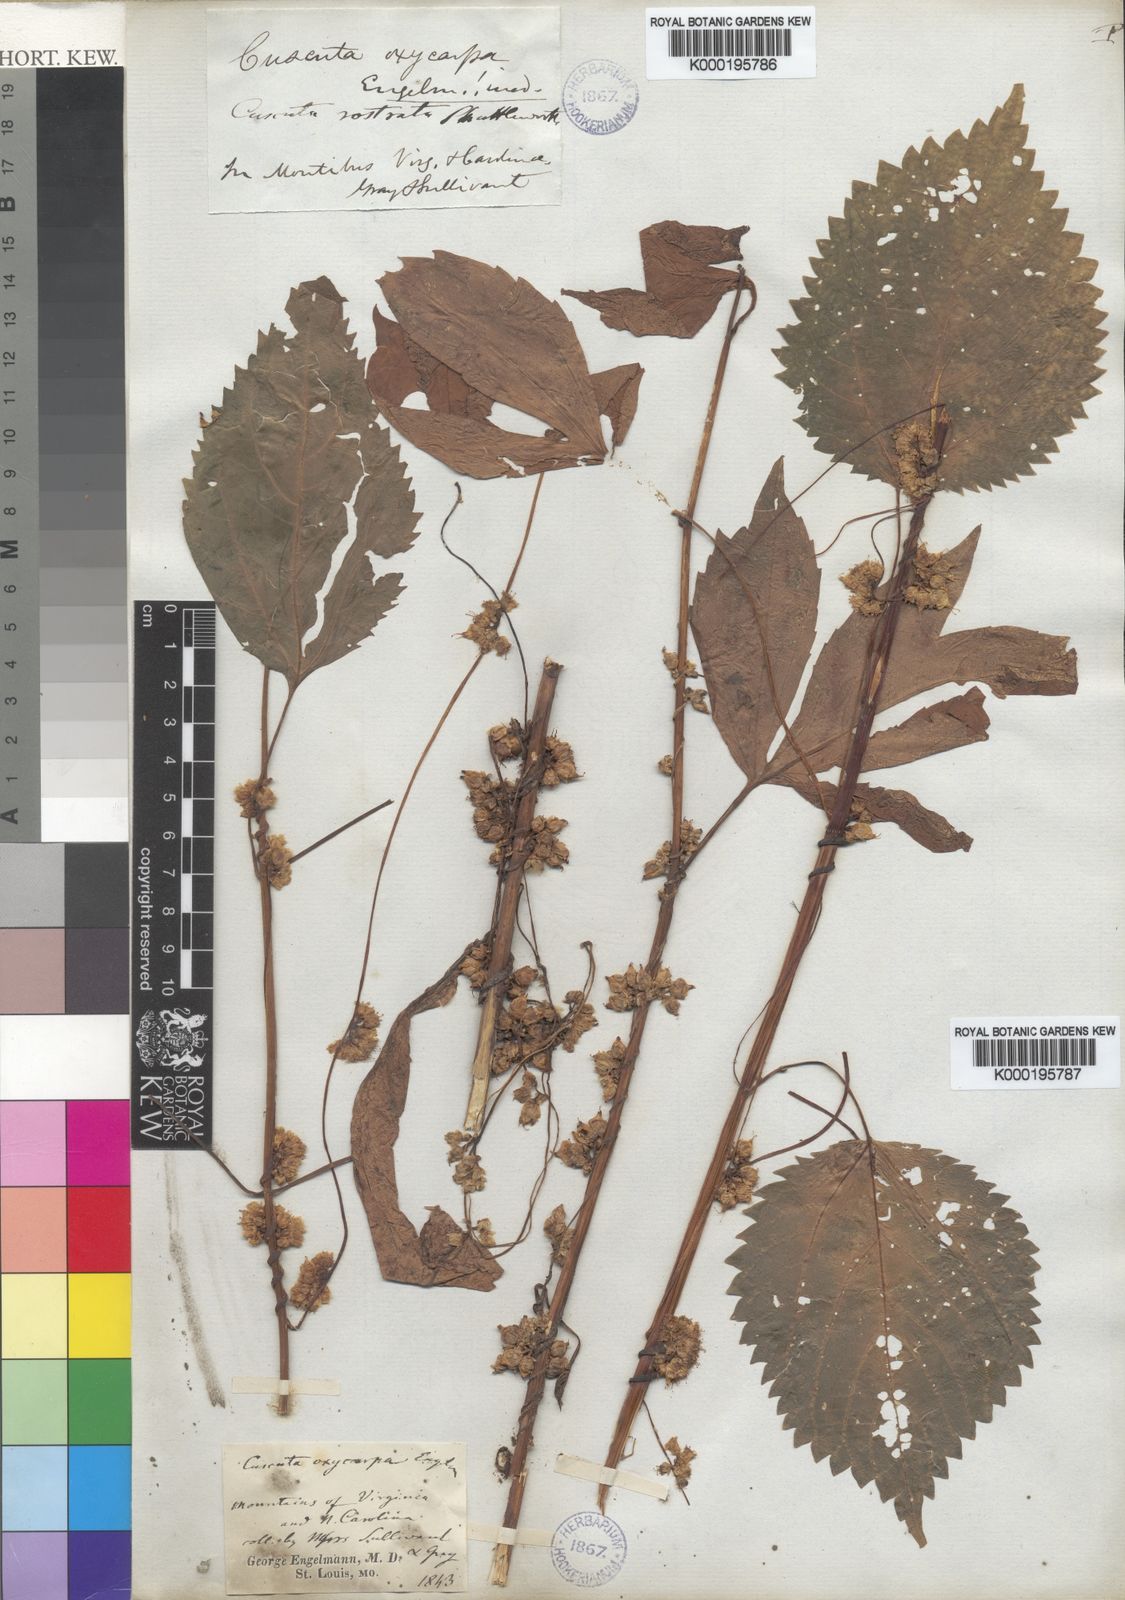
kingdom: Plantae
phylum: Tracheophyta
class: Magnoliopsida
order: Solanales
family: Convolvulaceae
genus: Cuscuta
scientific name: Cuscuta rostrata
